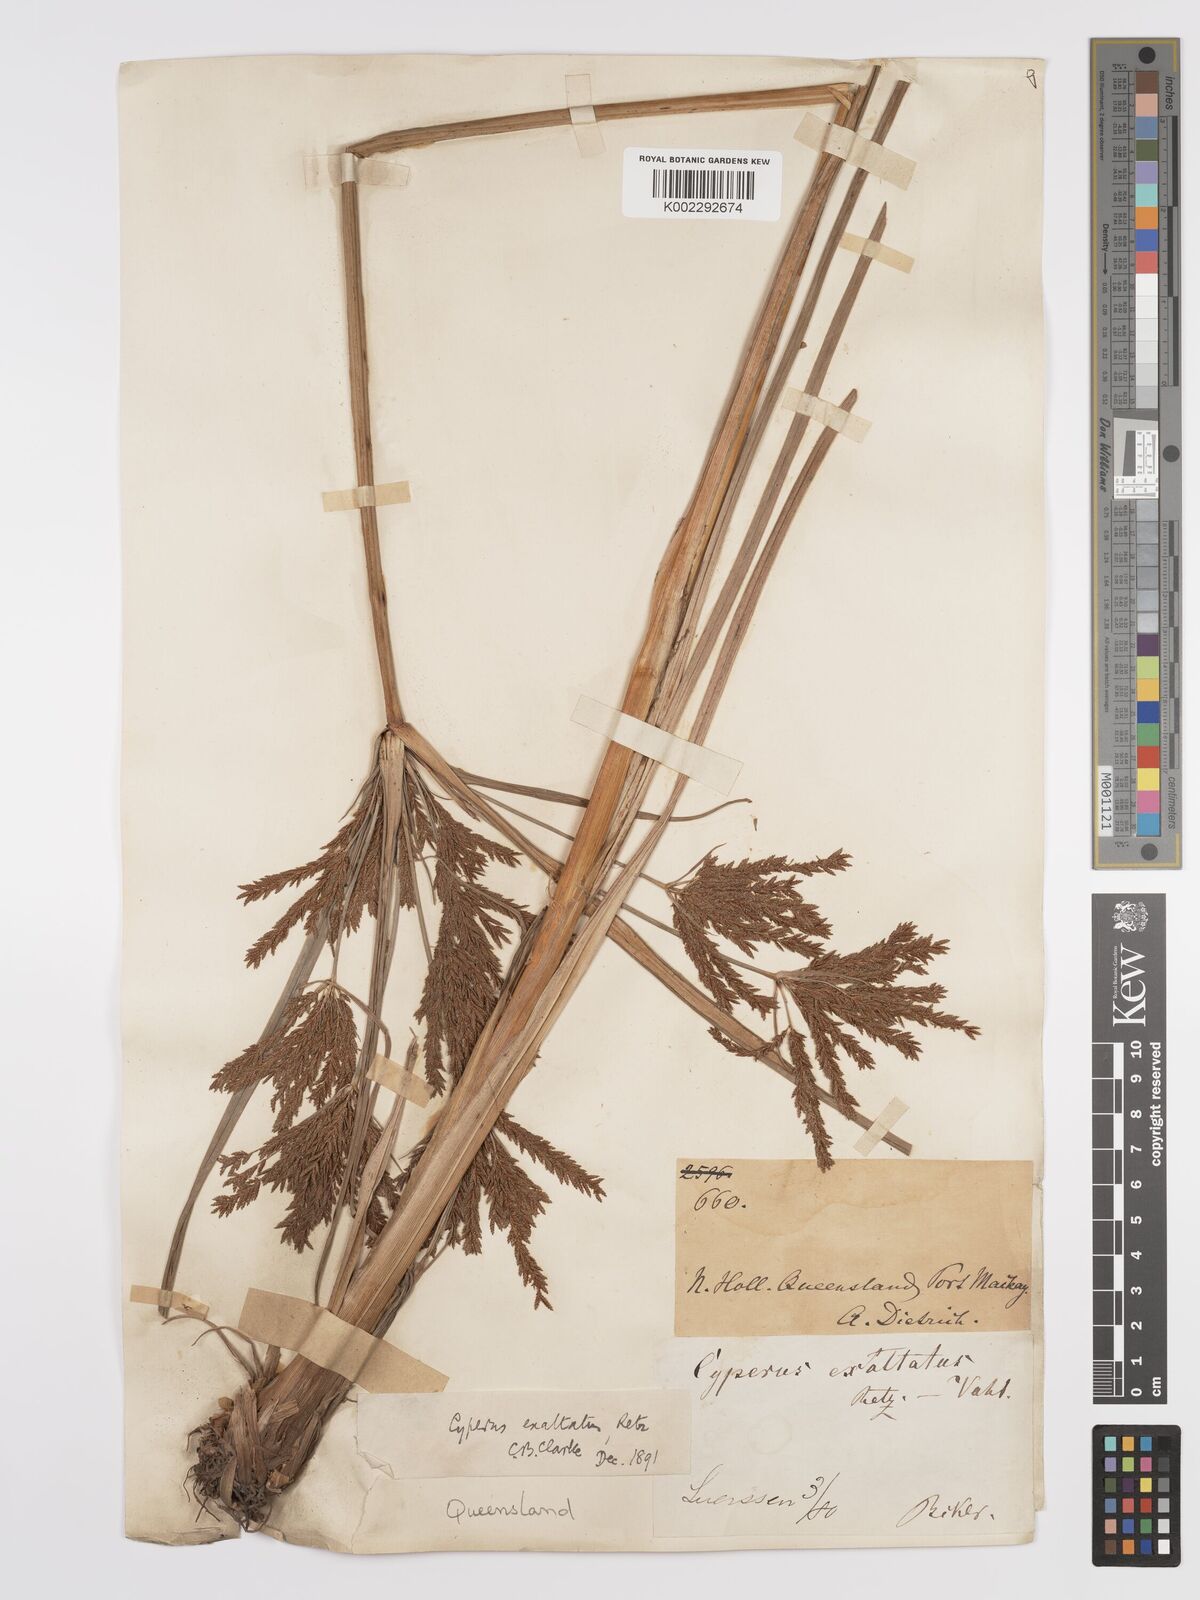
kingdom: Plantae
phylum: Tracheophyta
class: Liliopsida
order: Poales
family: Cyperaceae
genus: Cyperus
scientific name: Cyperus exaltatus
